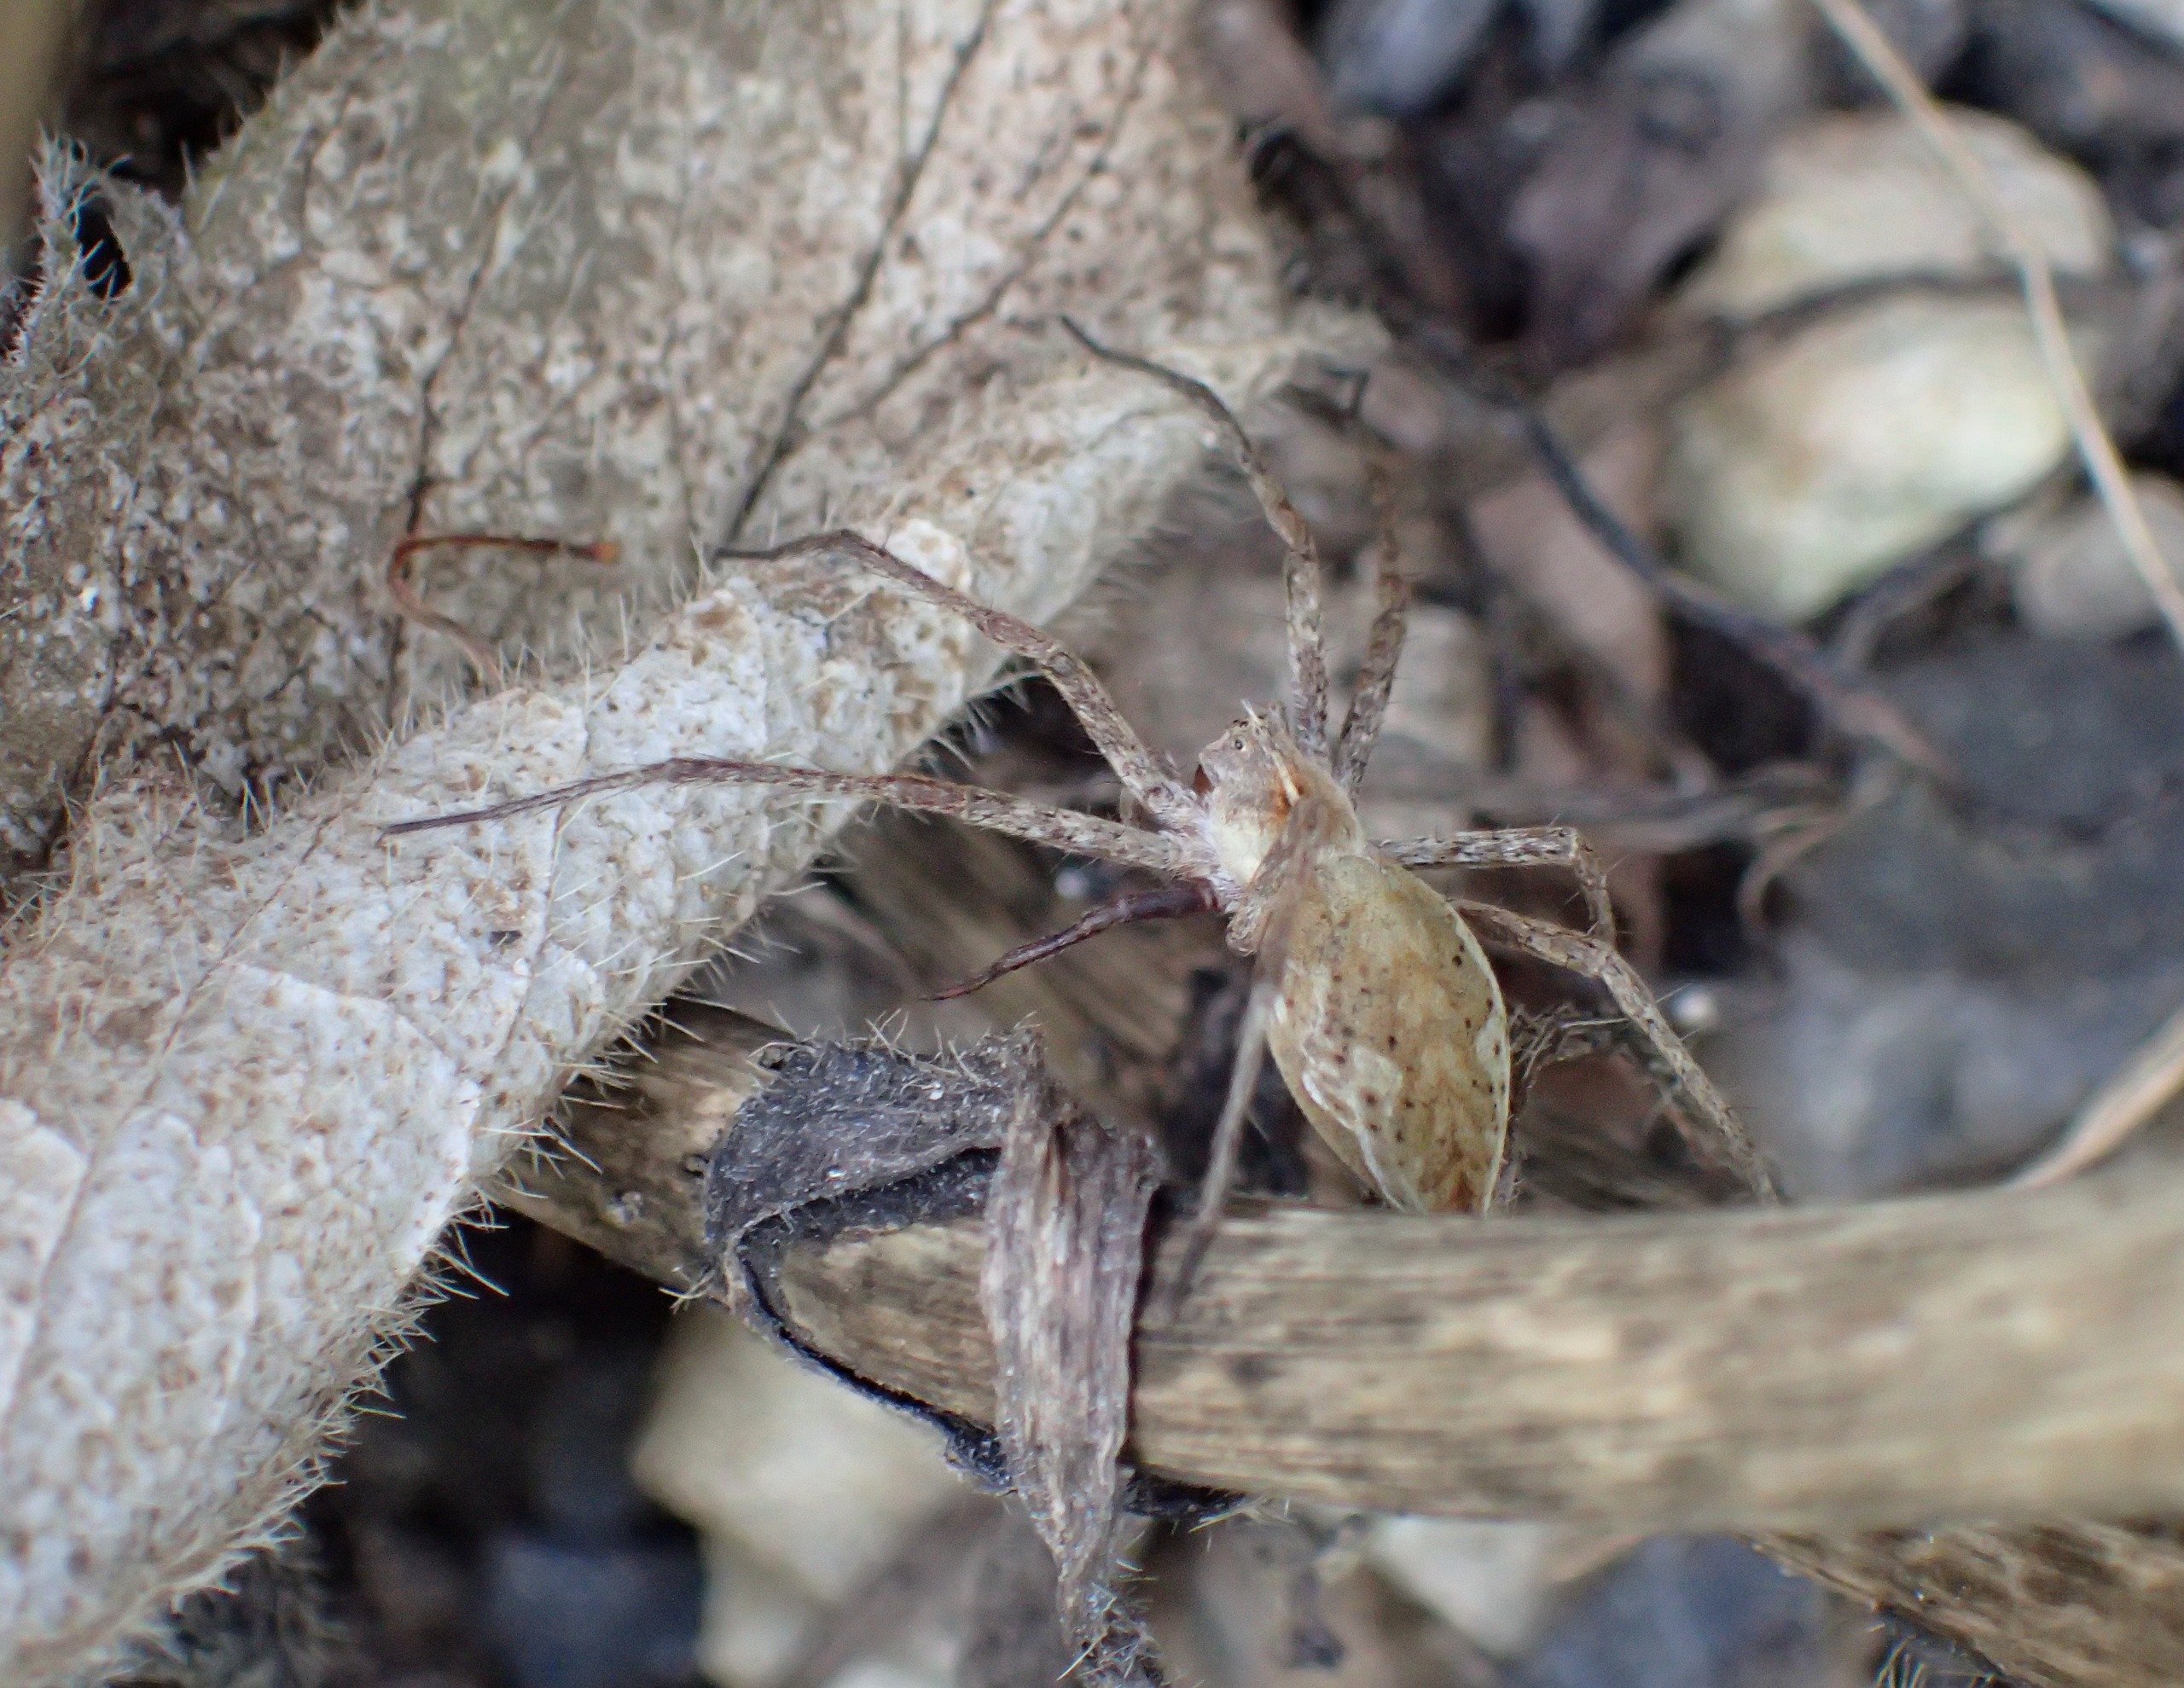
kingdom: Animalia
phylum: Arthropoda
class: Arachnida
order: Araneae
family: Pisauridae
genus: Pisaura
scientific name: Pisaura mirabilis
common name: Almindelig rovedderkop
